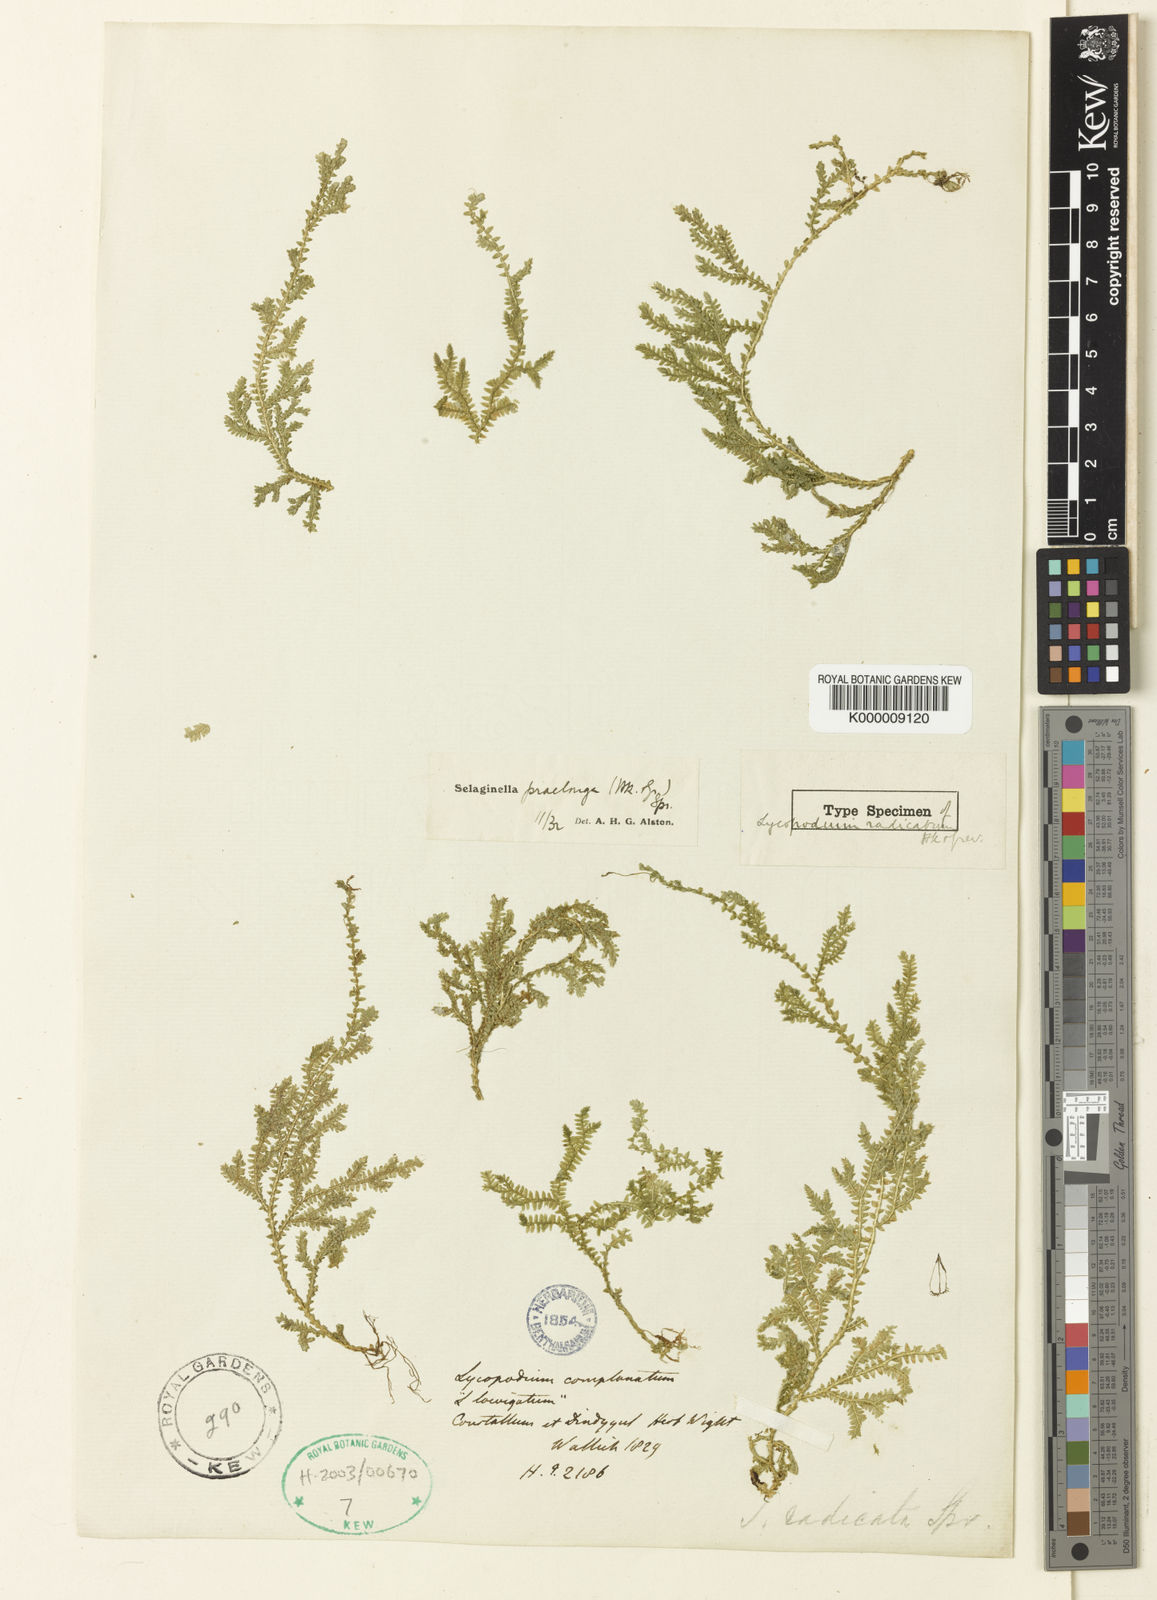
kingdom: Plantae
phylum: Tracheophyta
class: Lycopodiopsida
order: Selaginellales
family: Selaginellaceae
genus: Selaginella
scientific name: Selaginella radicata
